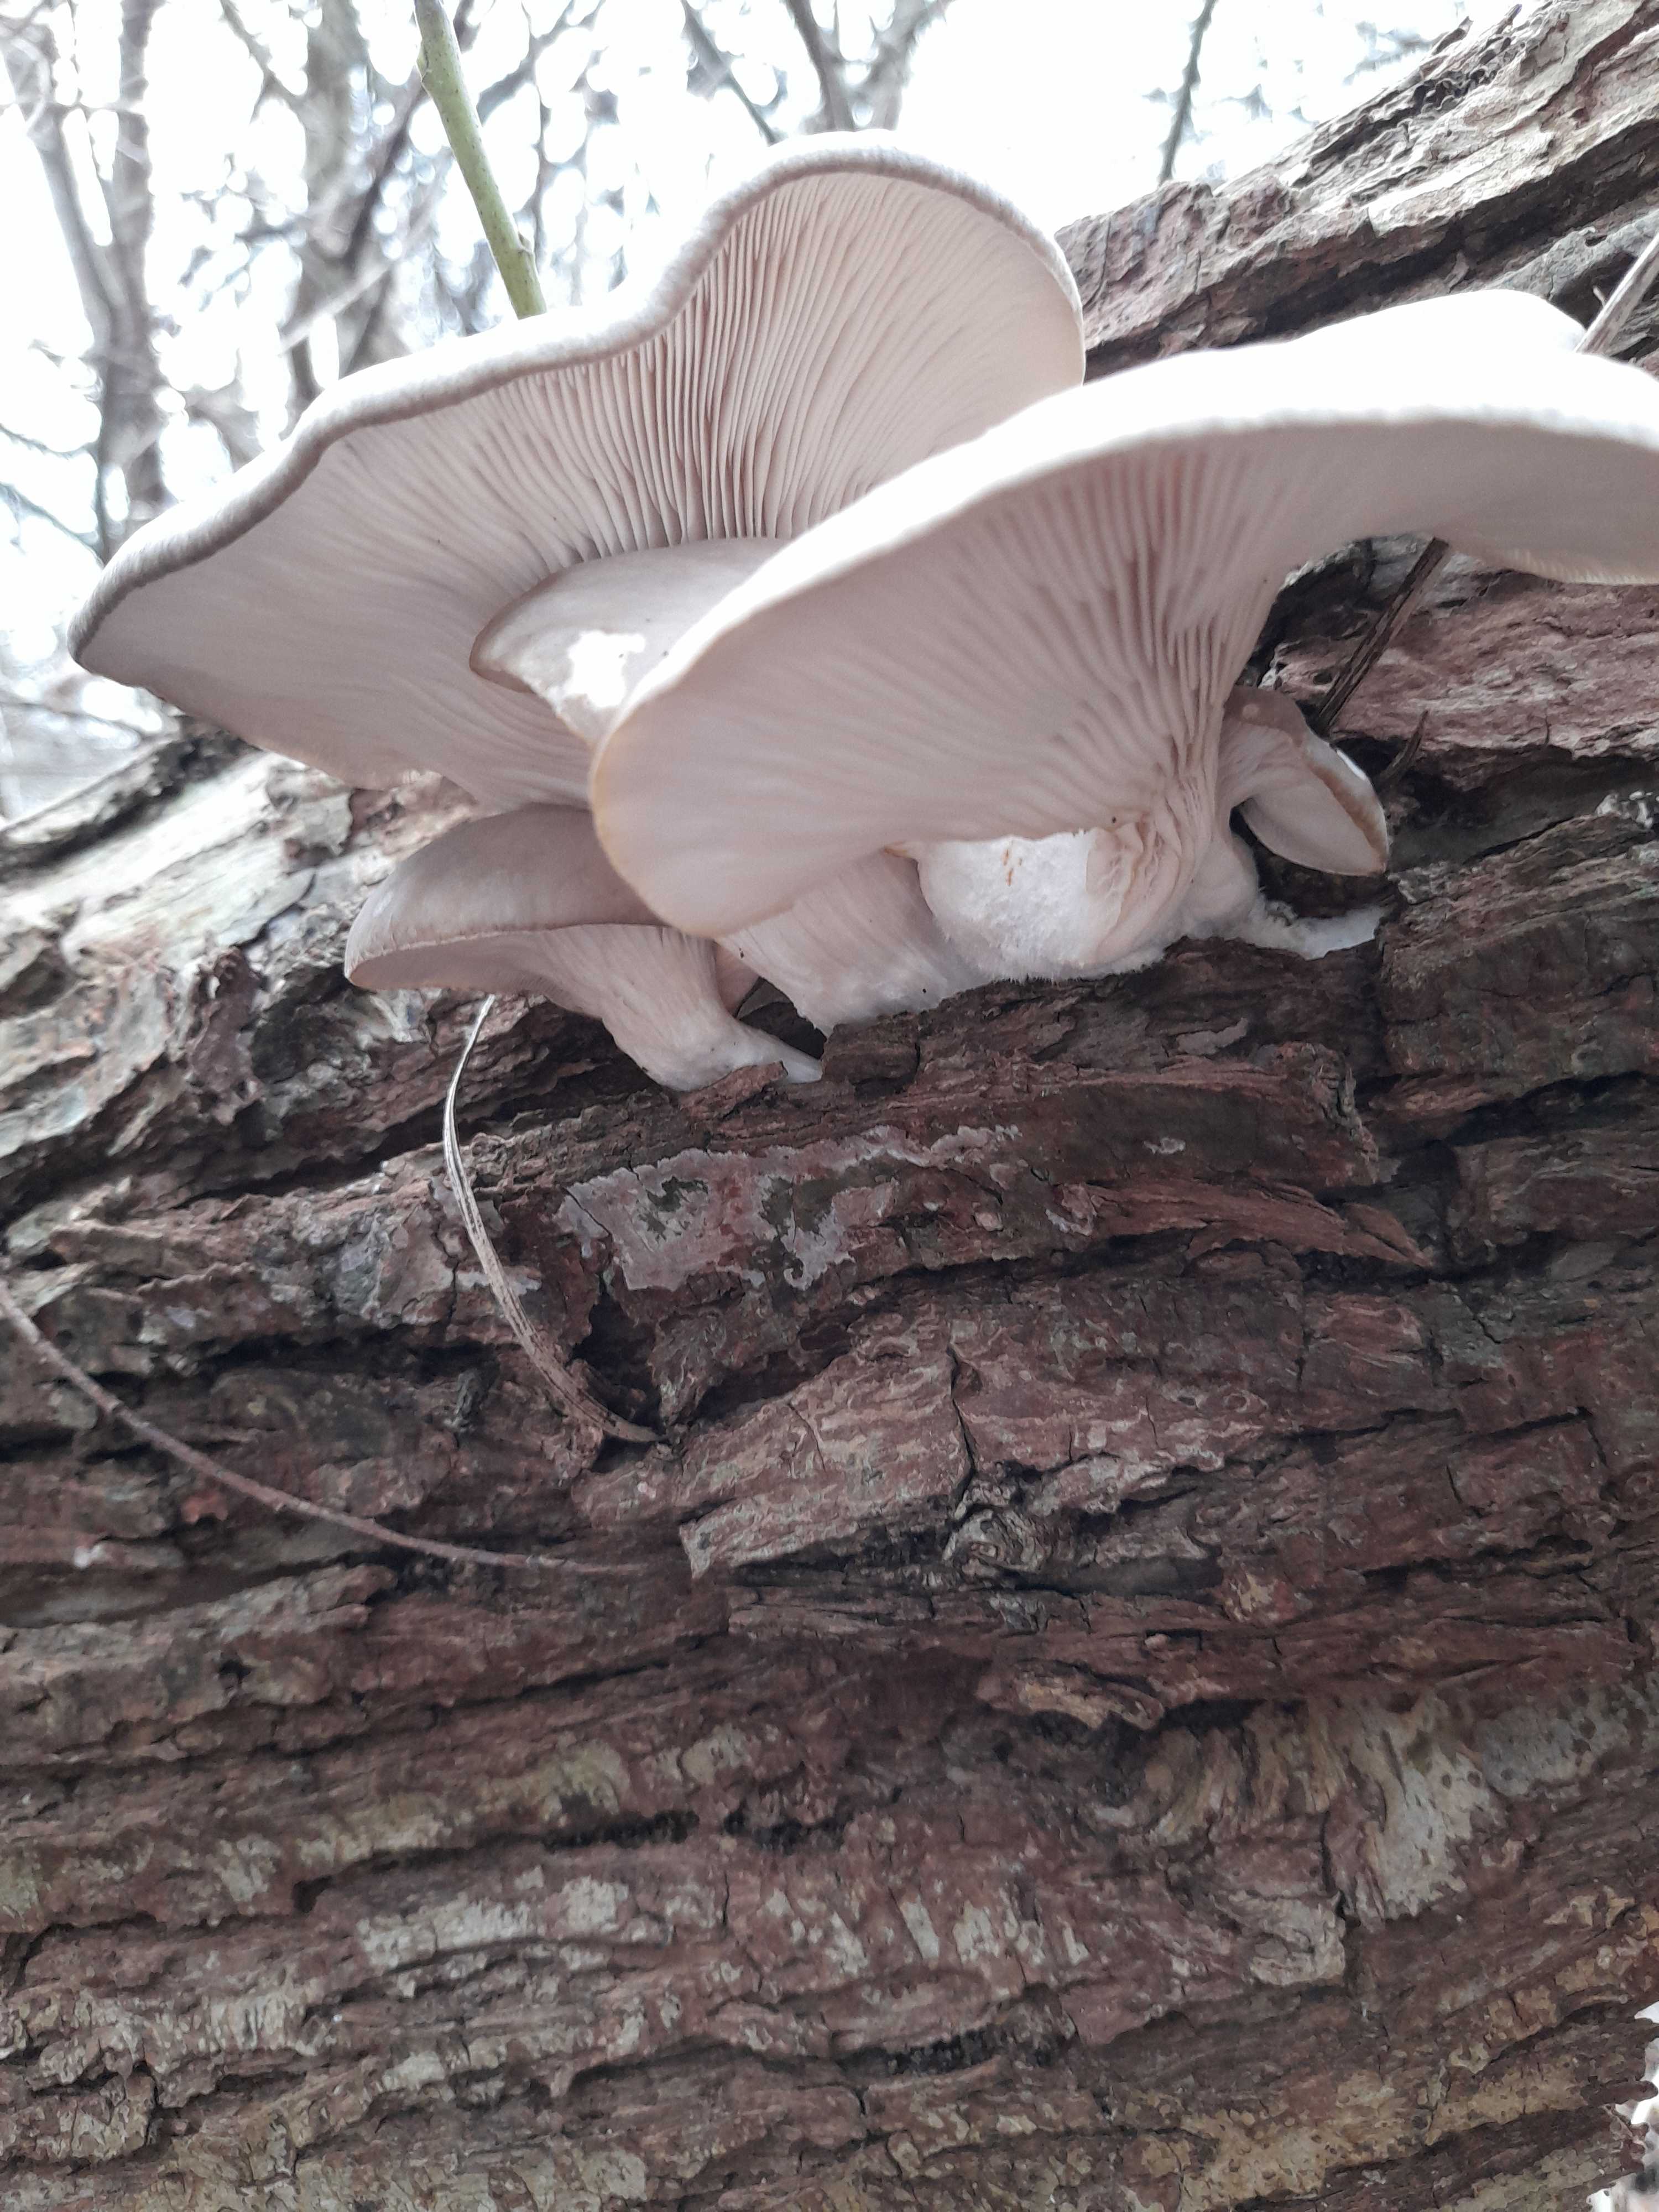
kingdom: Fungi
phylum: Basidiomycota
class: Agaricomycetes
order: Agaricales
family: Pleurotaceae
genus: Pleurotus
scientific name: Pleurotus ostreatus
